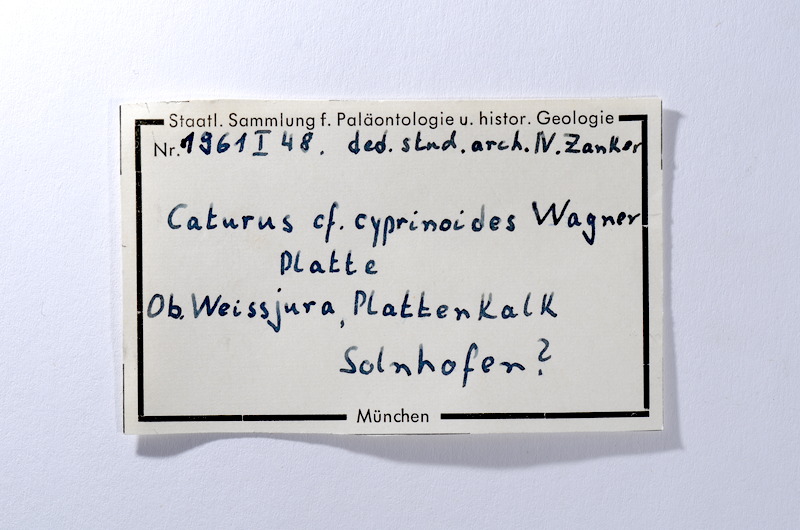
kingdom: Animalia
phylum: Chordata
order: Amiiformes
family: Caturidae
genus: Caturus
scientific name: Caturus furcatus
